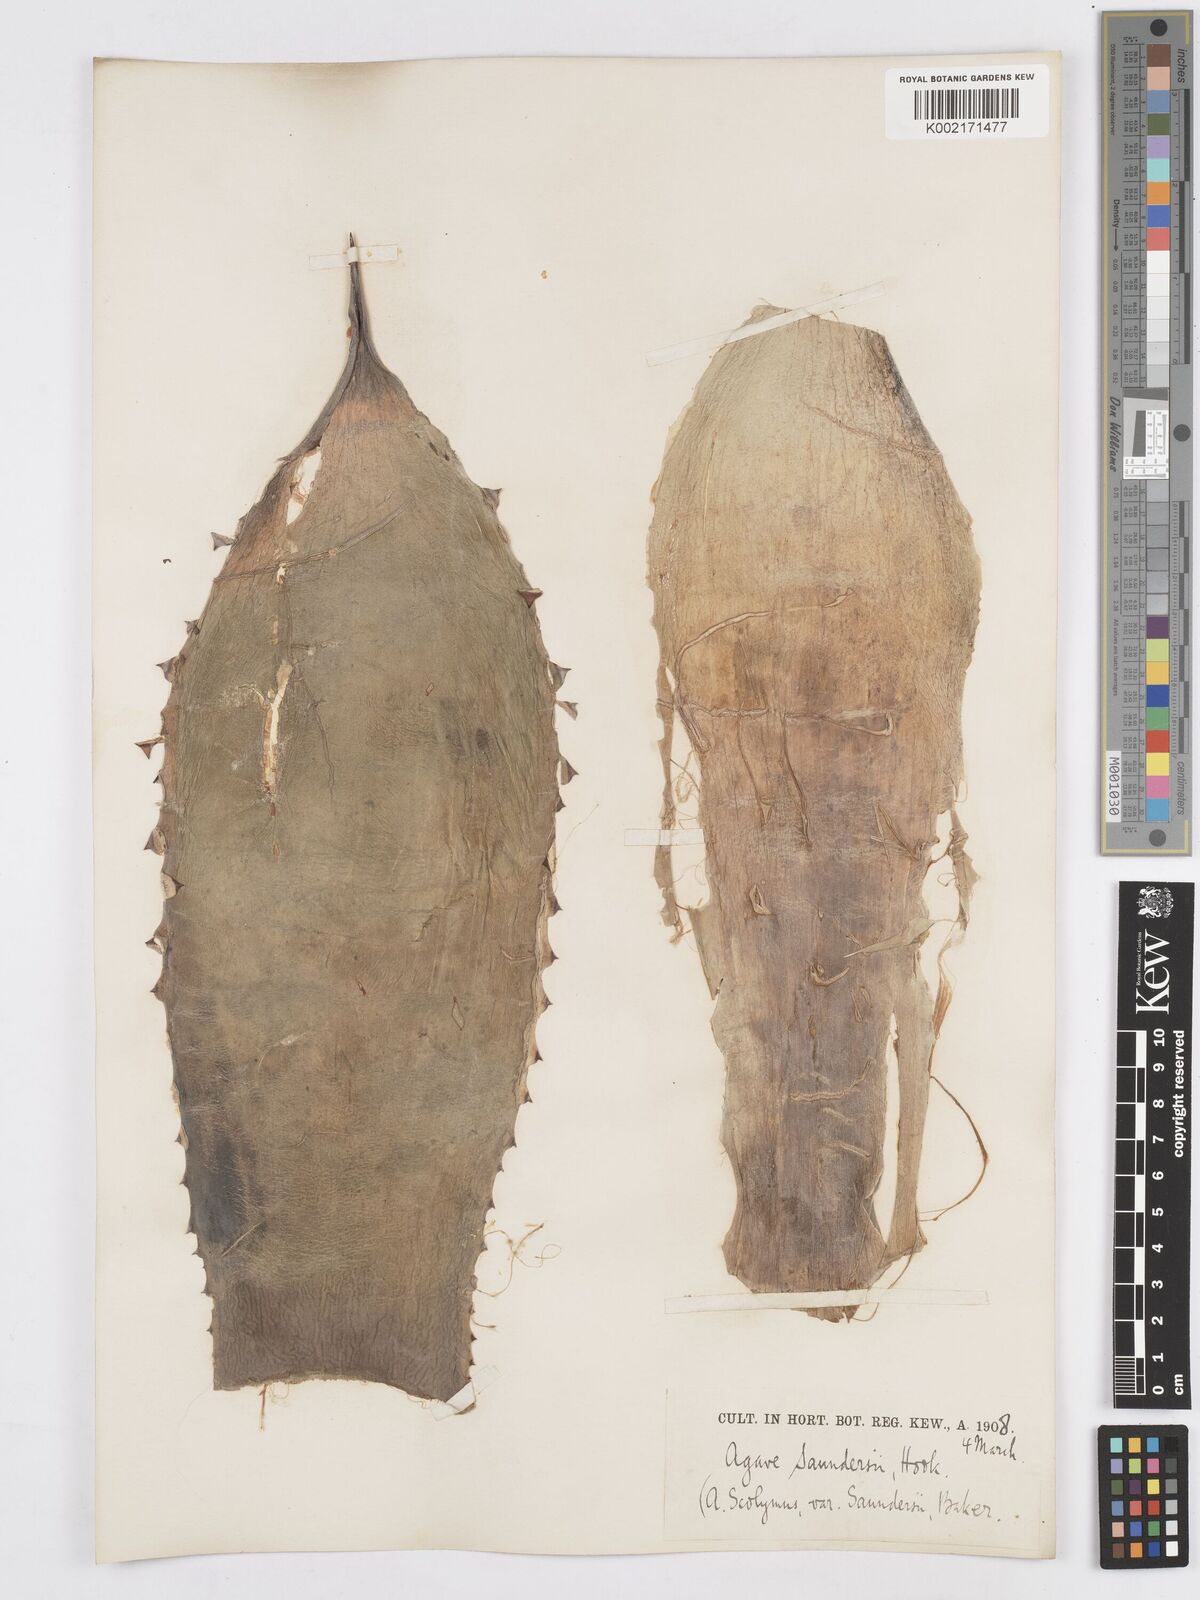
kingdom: Plantae
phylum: Tracheophyta
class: Liliopsida
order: Asparagales
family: Asparagaceae
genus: Agave
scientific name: Agave potatorum
